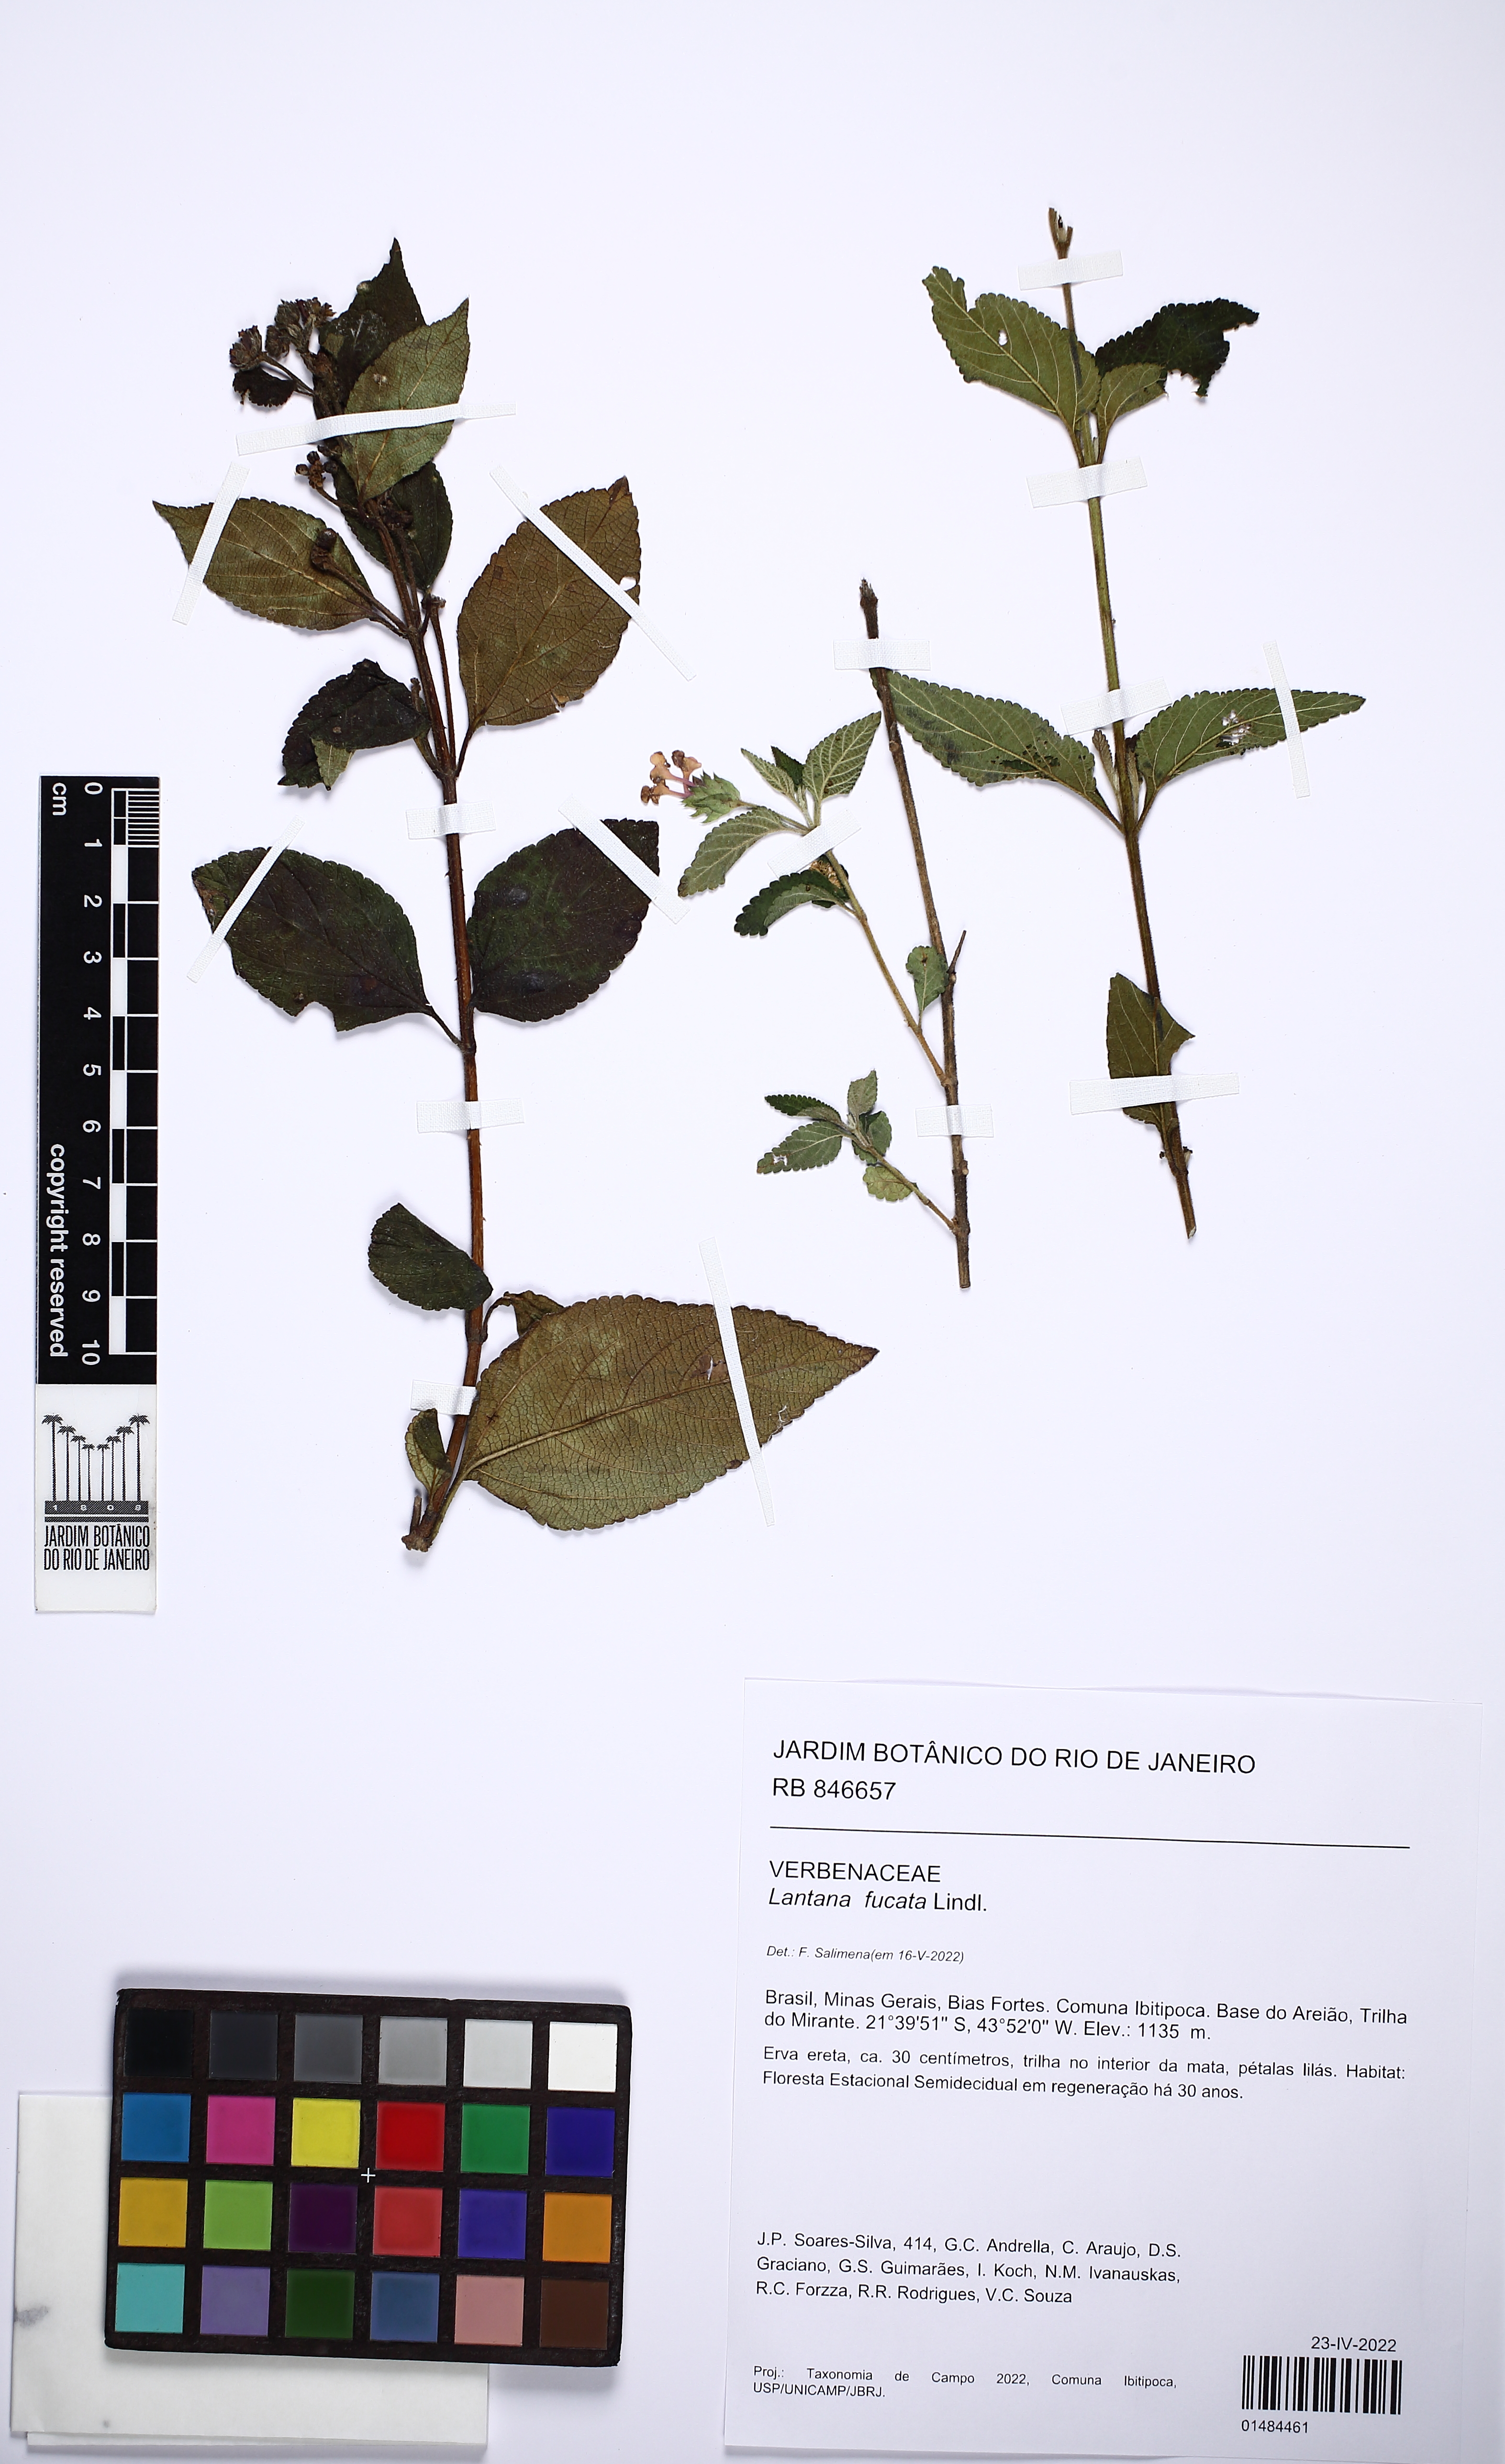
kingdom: Plantae
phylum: Tracheophyta
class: Magnoliopsida
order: Lamiales
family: Verbenaceae
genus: Lantana
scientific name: Lantana fucata
